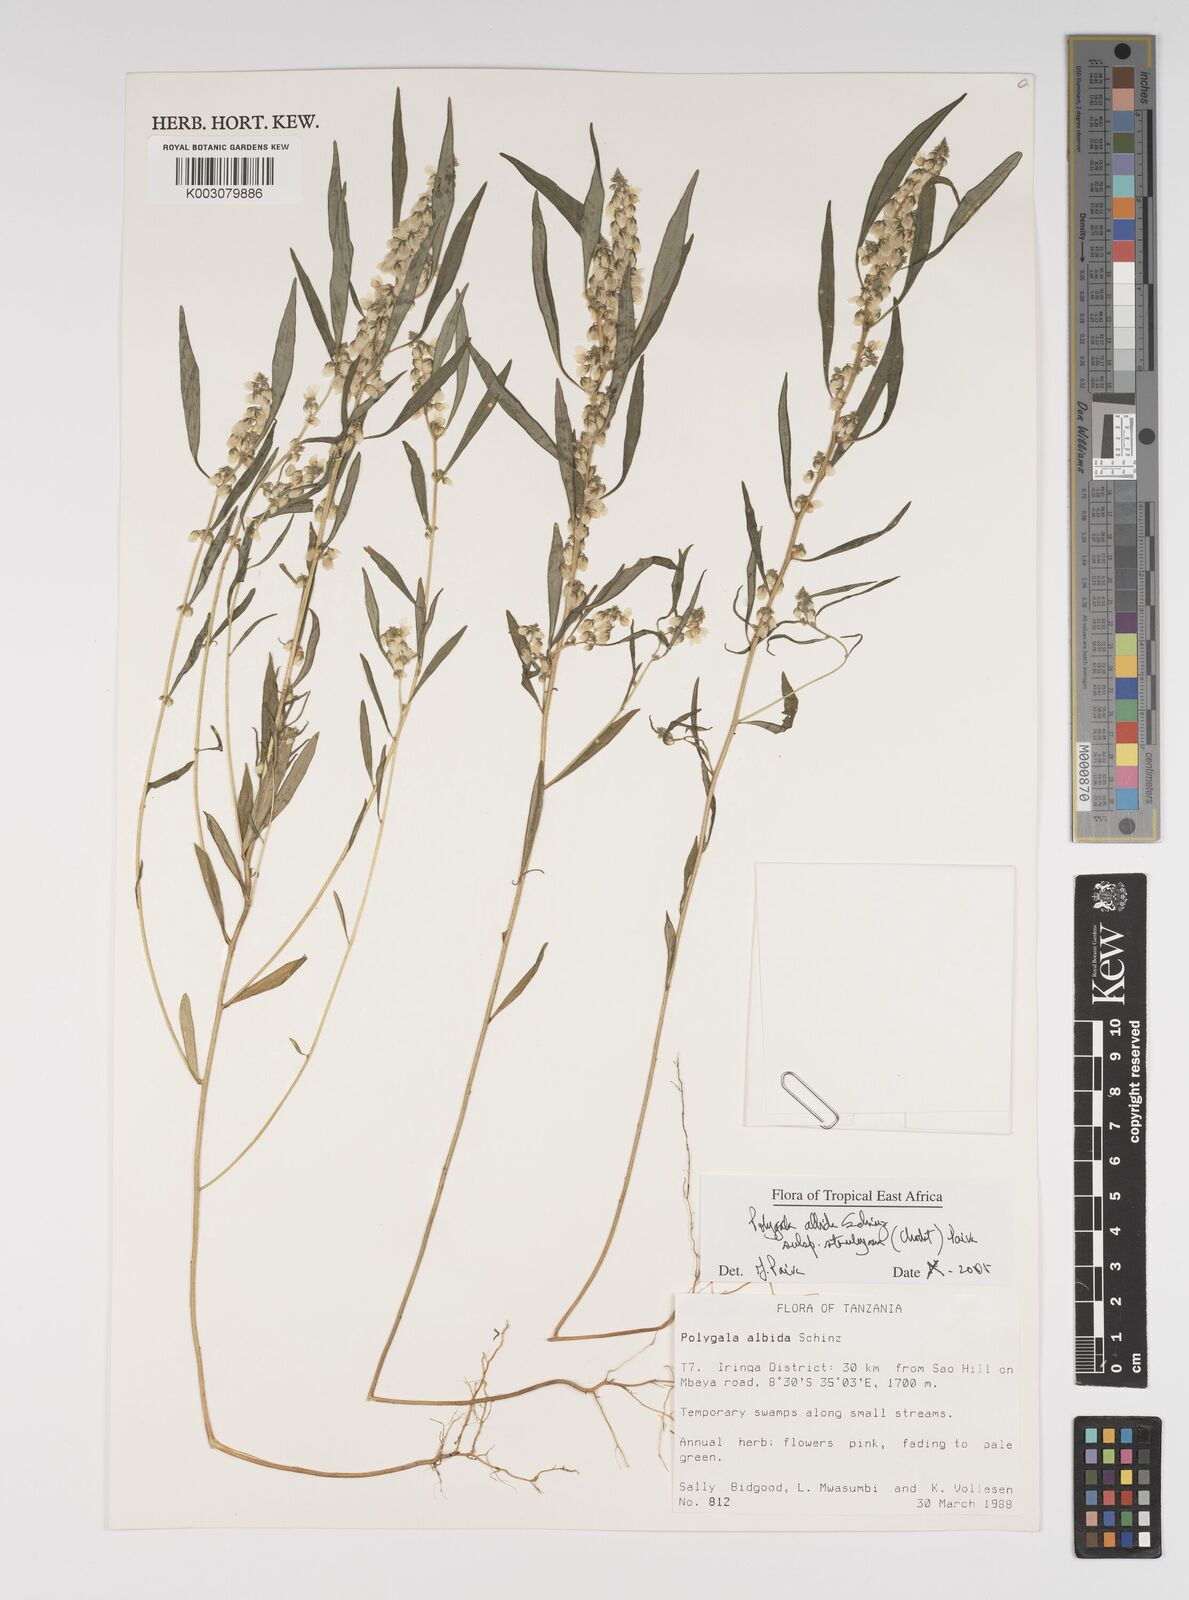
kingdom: Plantae
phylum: Tracheophyta
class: Magnoliopsida
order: Fabales
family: Polygalaceae
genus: Polygala
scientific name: Polygala albida
